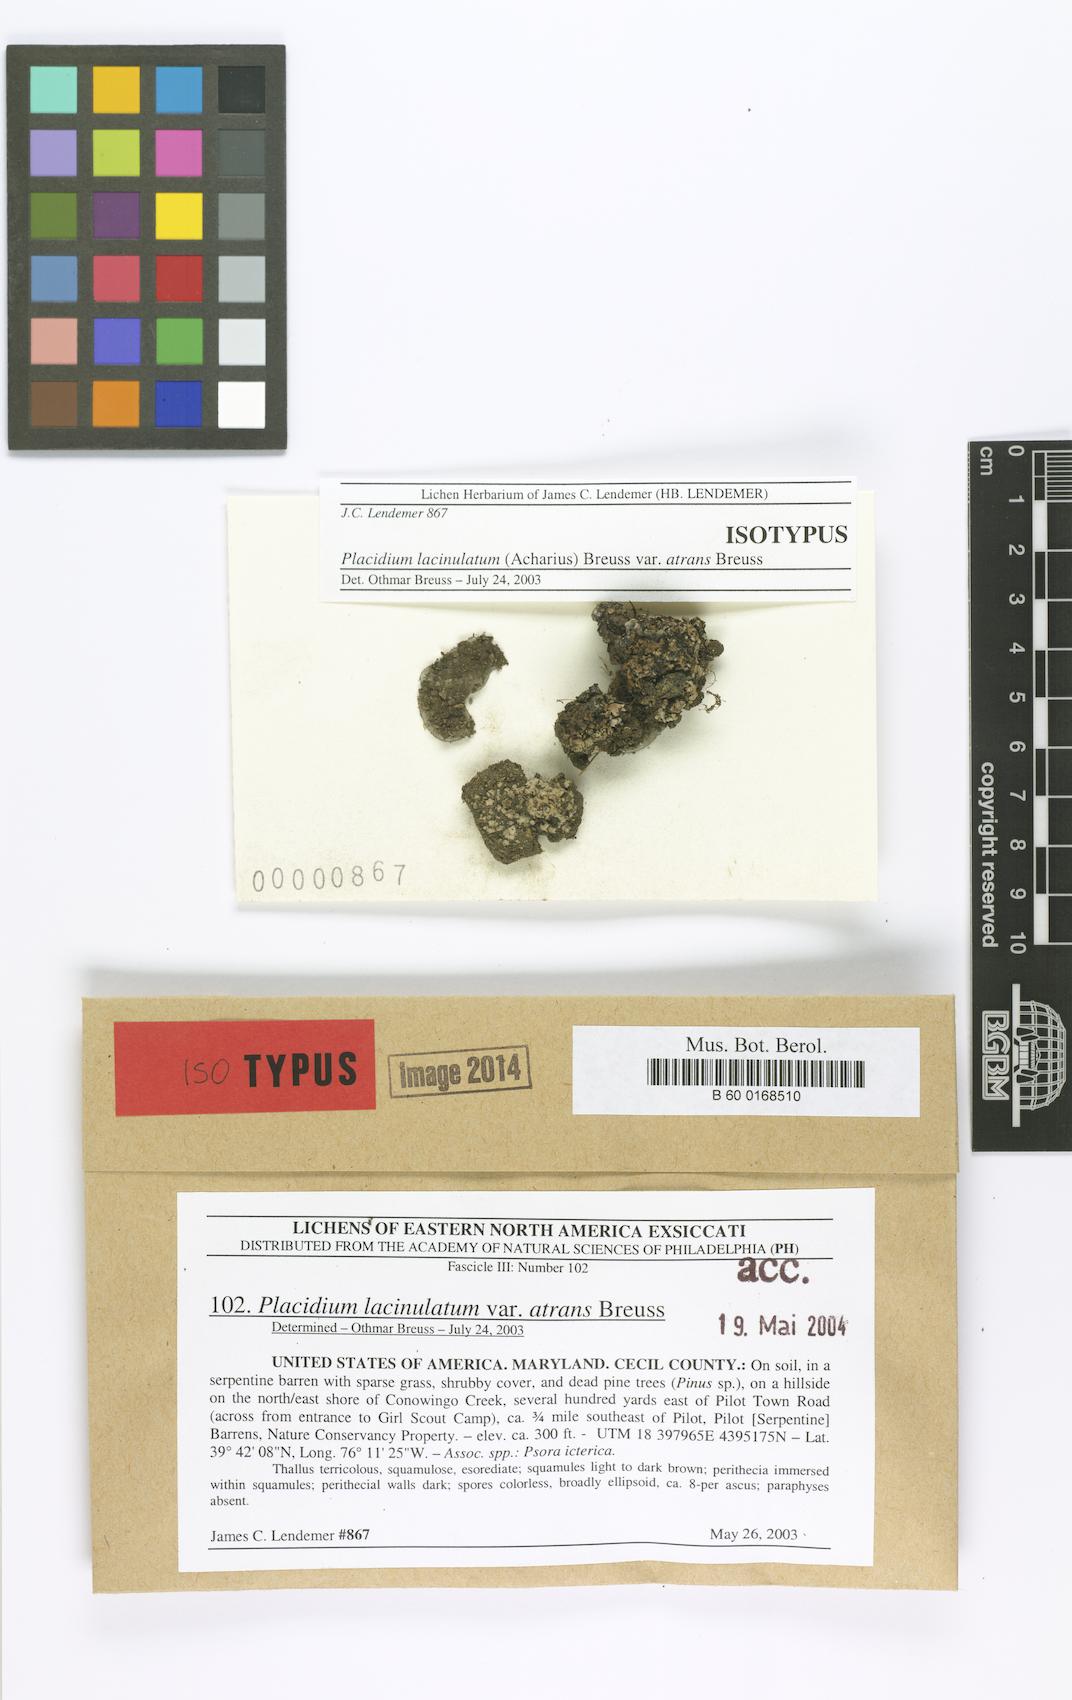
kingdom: Fungi
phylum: Ascomycota
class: Eurotiomycetes
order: Verrucariales
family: Verrucariaceae
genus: Clavascidium
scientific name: Clavascidium lacinulatum
